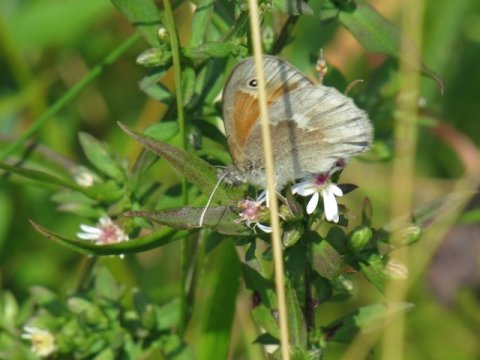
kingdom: Animalia
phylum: Arthropoda
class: Insecta
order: Lepidoptera
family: Nymphalidae
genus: Coenonympha
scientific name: Coenonympha tullia
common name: Large Heath
